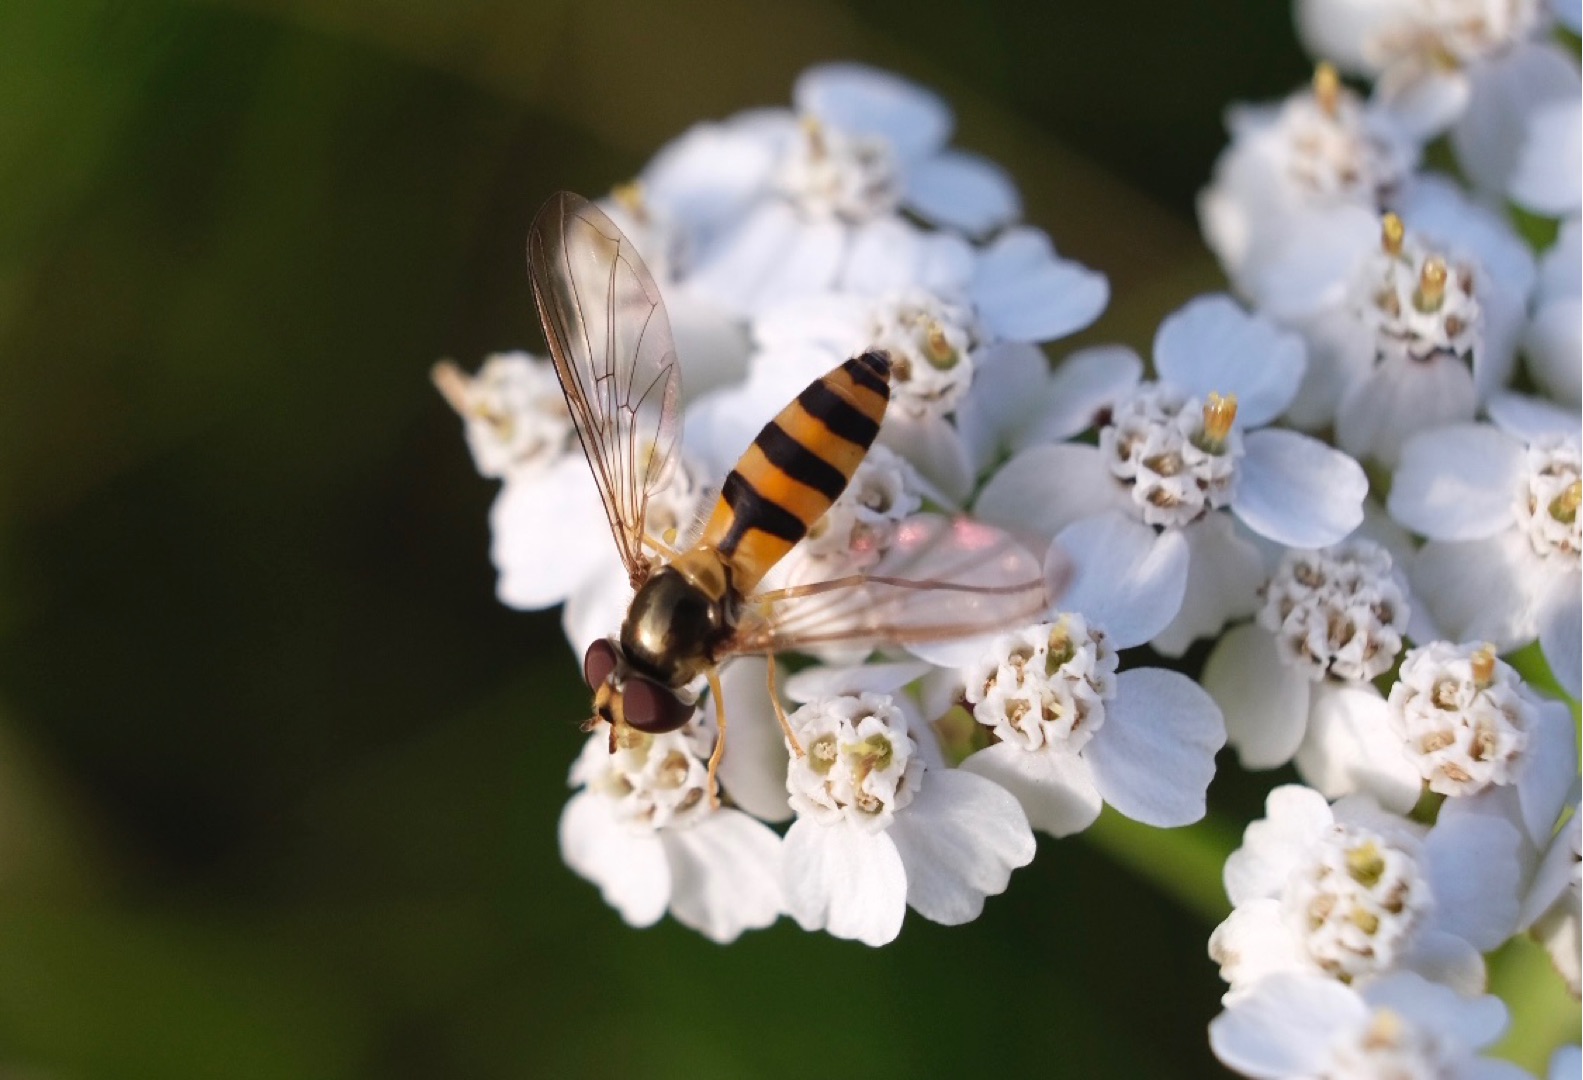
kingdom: Animalia
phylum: Arthropoda
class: Insecta
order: Diptera
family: Syrphidae
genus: Meliscaeva
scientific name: Meliscaeva cinctella
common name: Bælte-svirreflue
